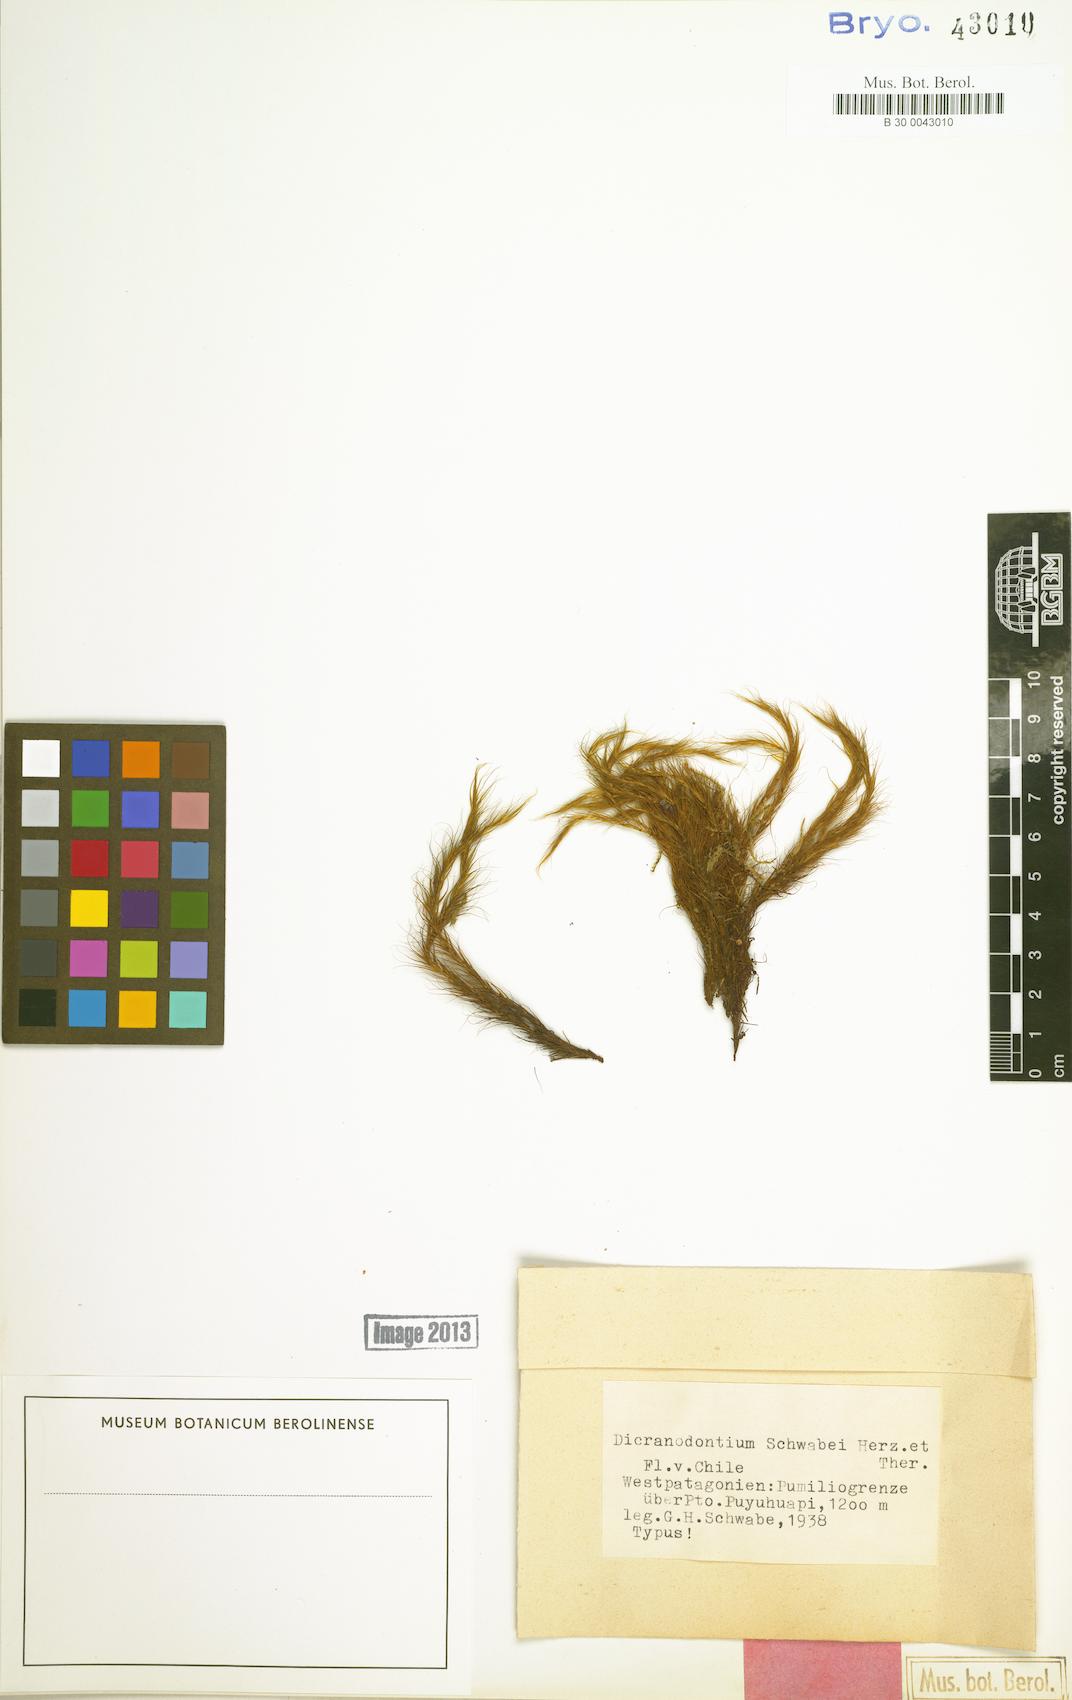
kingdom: Plantae
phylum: Bryophyta
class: Bryopsida
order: Dicranales
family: Dicranaceae
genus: Chorisodontium
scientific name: Chorisodontium aciphyllum
